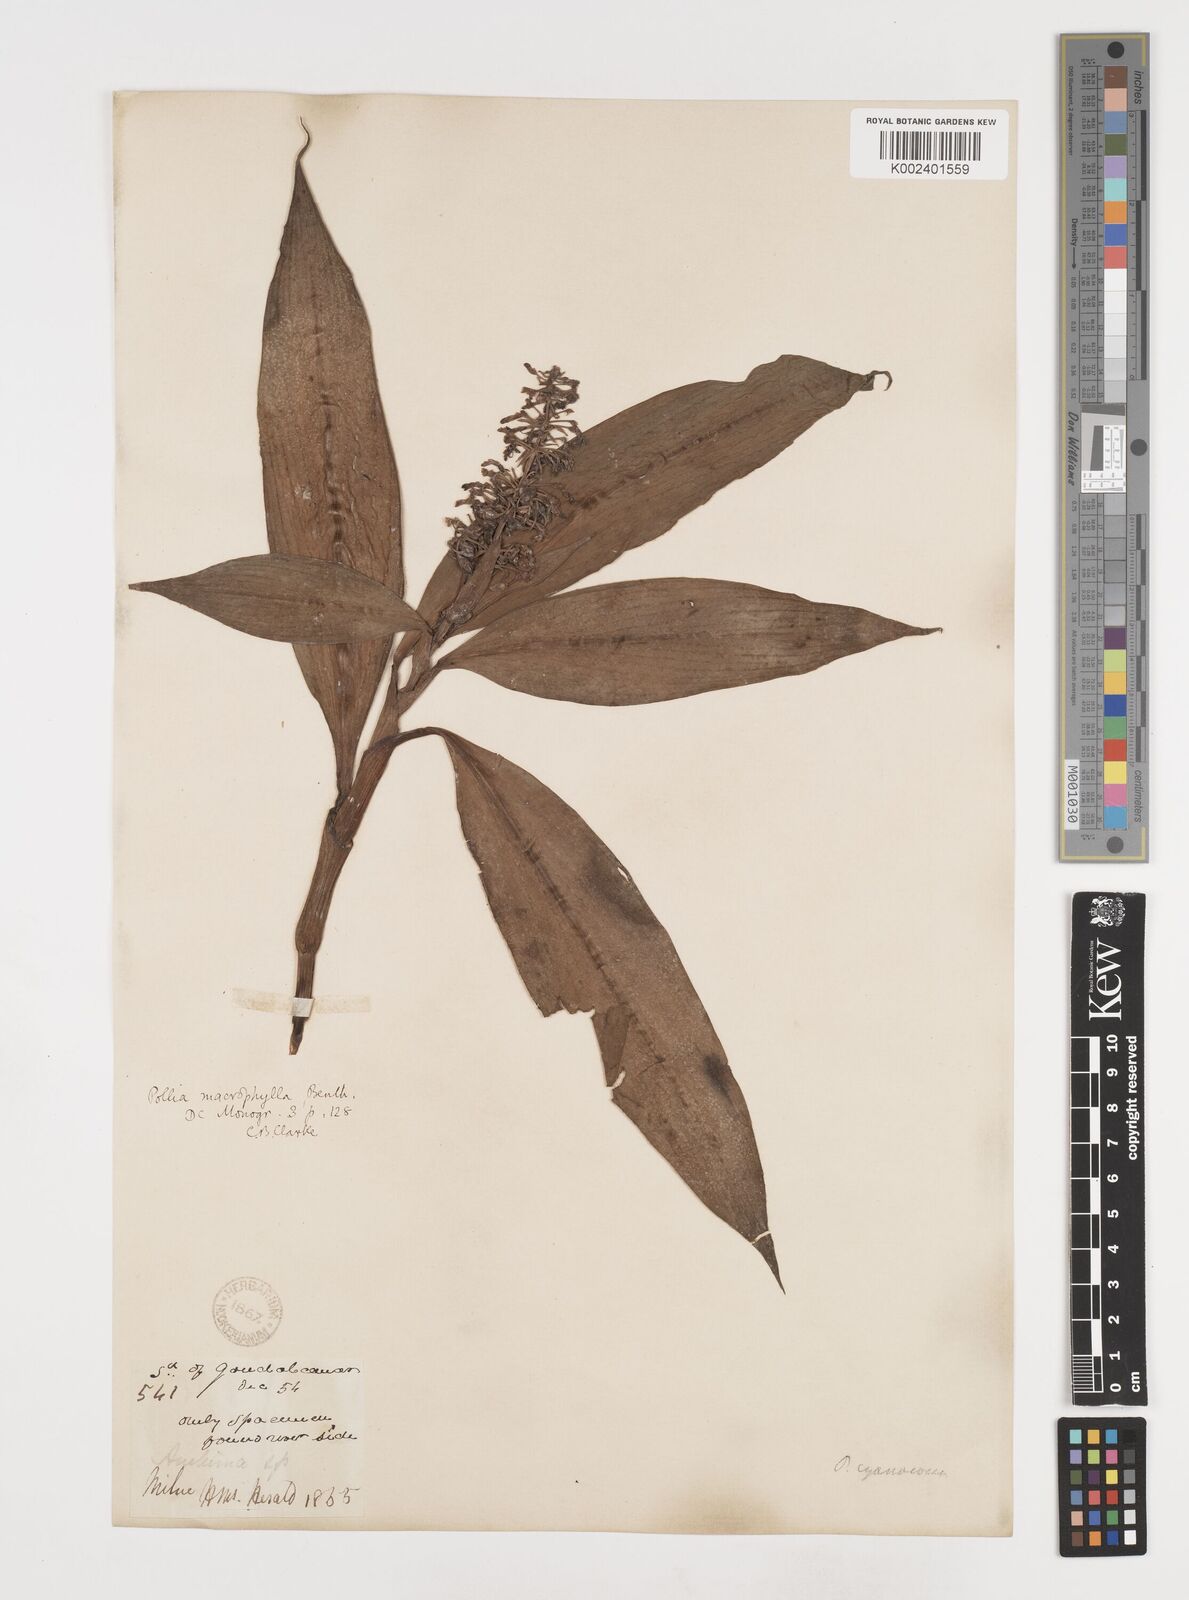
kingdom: Plantae
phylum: Tracheophyta
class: Liliopsida
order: Commelinales
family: Commelinaceae
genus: Pollia
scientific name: Pollia macrophylla
